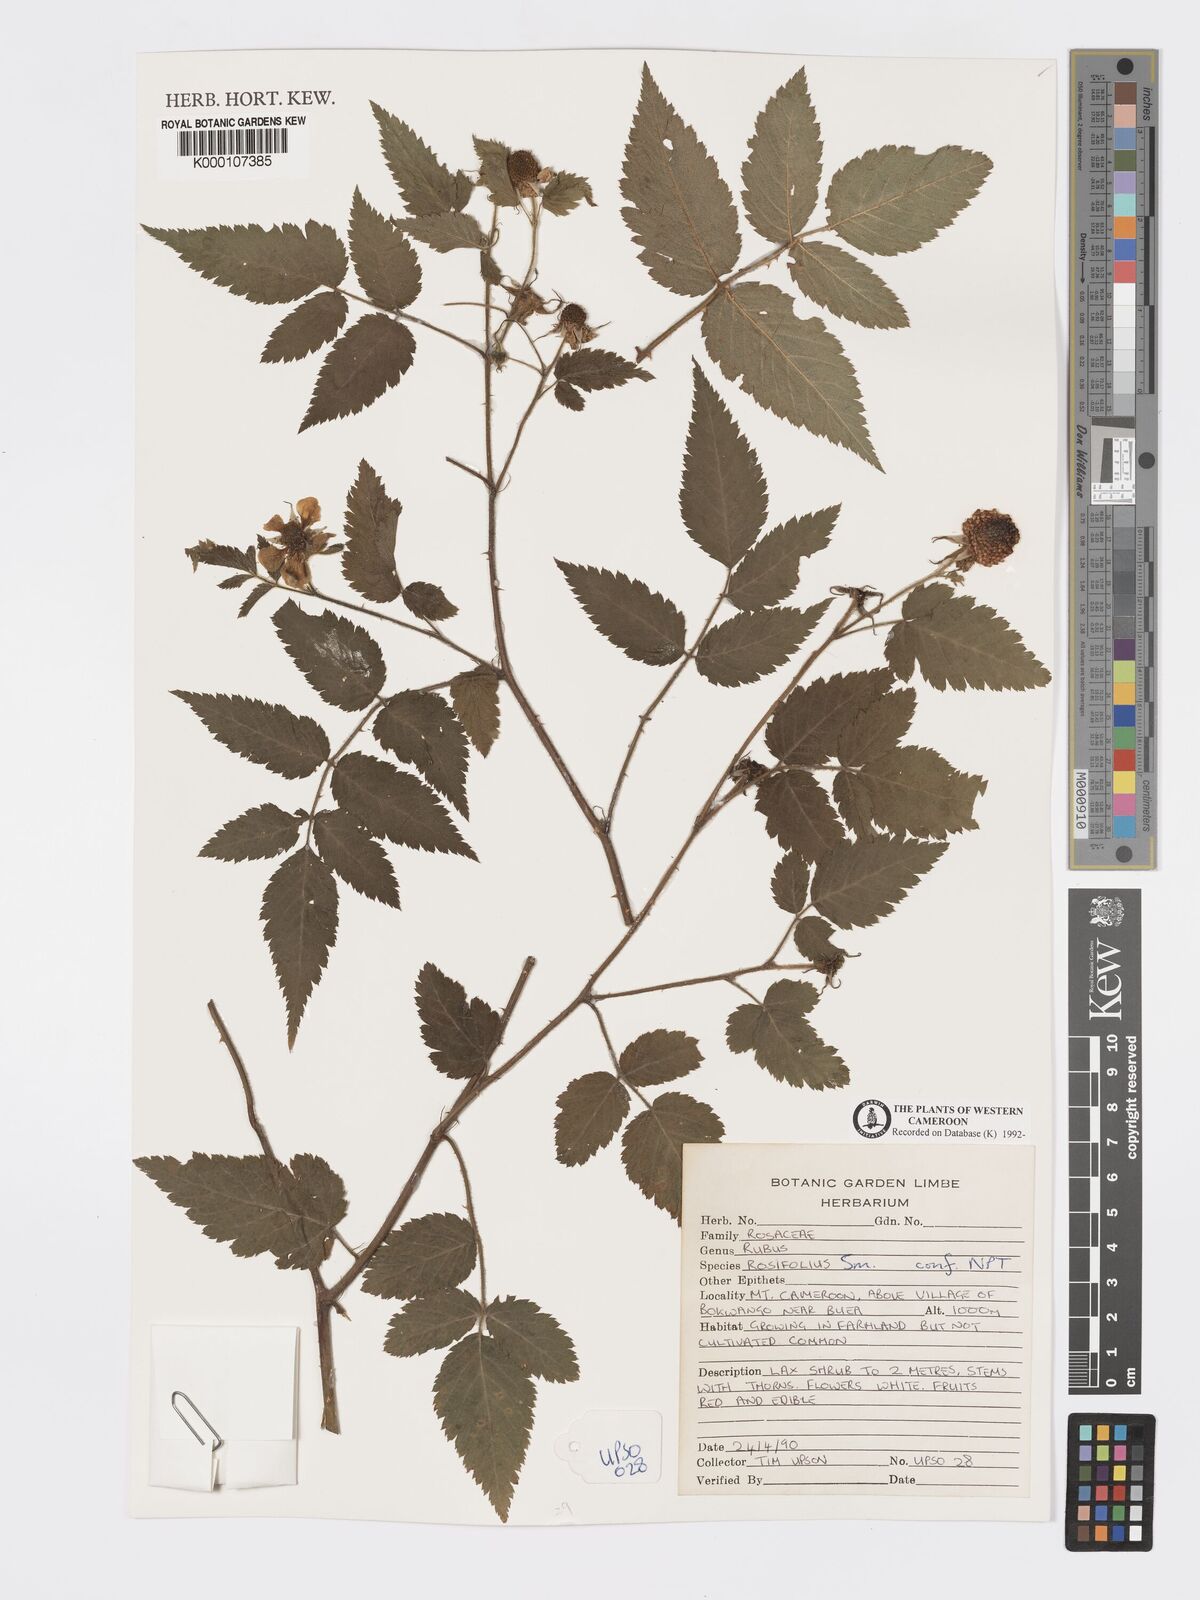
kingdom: Plantae
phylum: Tracheophyta
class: Magnoliopsida
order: Rosales
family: Rosaceae
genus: Rubus
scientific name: Rubus rosifolius
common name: Roseleaf raspberry
